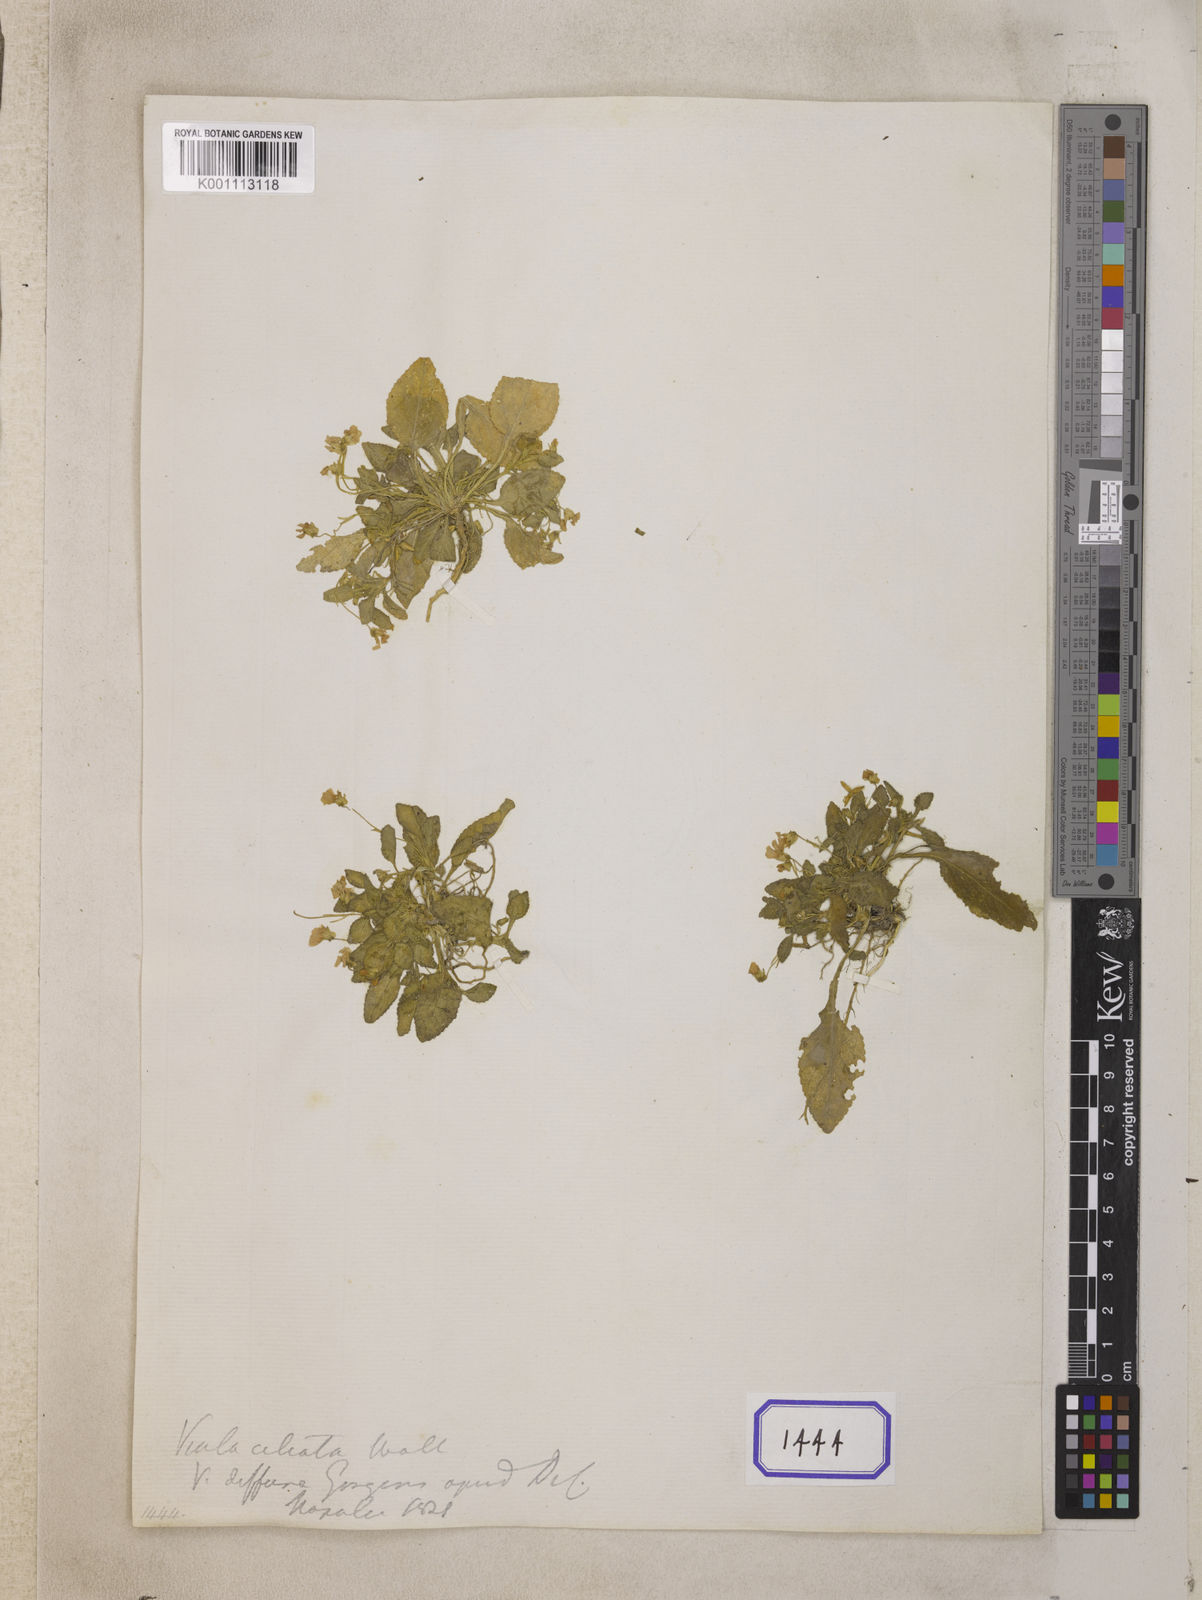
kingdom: Plantae
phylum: Tracheophyta
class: Magnoliopsida
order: Malpighiales
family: Violaceae
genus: Viola
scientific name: Viola diffusa
